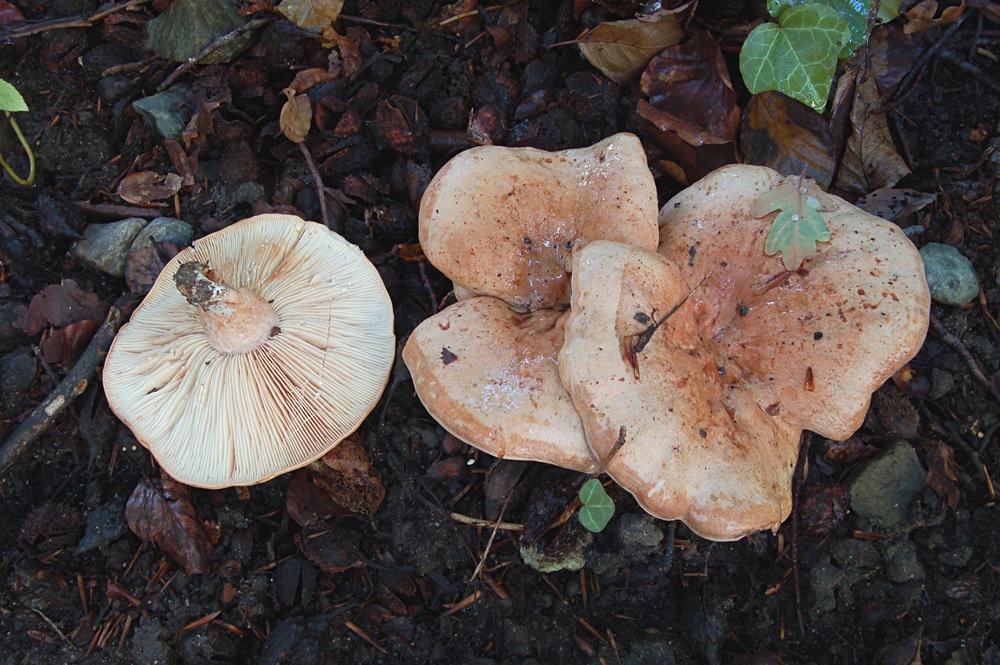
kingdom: Fungi
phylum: Basidiomycota
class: Agaricomycetes
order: Russulales
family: Russulaceae
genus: Lactarius
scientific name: Lactarius pallidus
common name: bleg mælkehat
